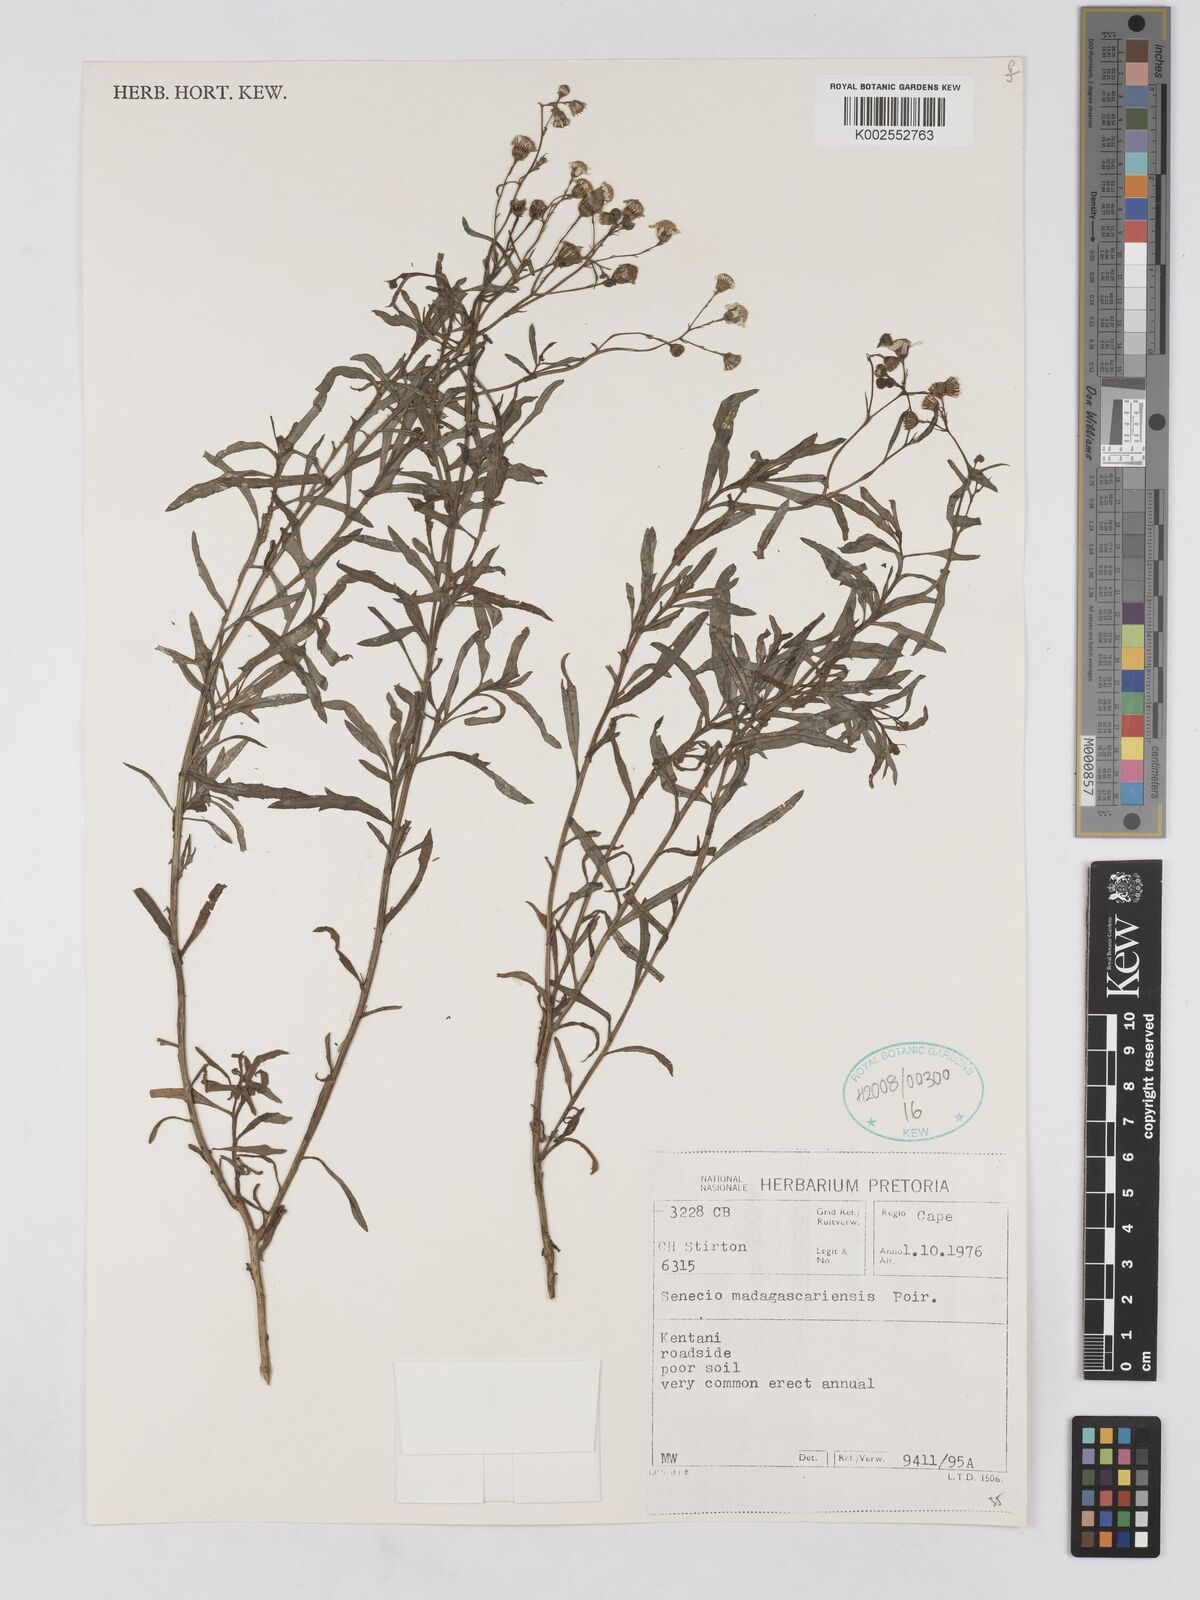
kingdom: Plantae
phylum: Tracheophyta
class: Magnoliopsida
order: Asterales
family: Asteraceae
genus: Senecio
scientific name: Senecio madagascariensis
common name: Madagascar ragwort
